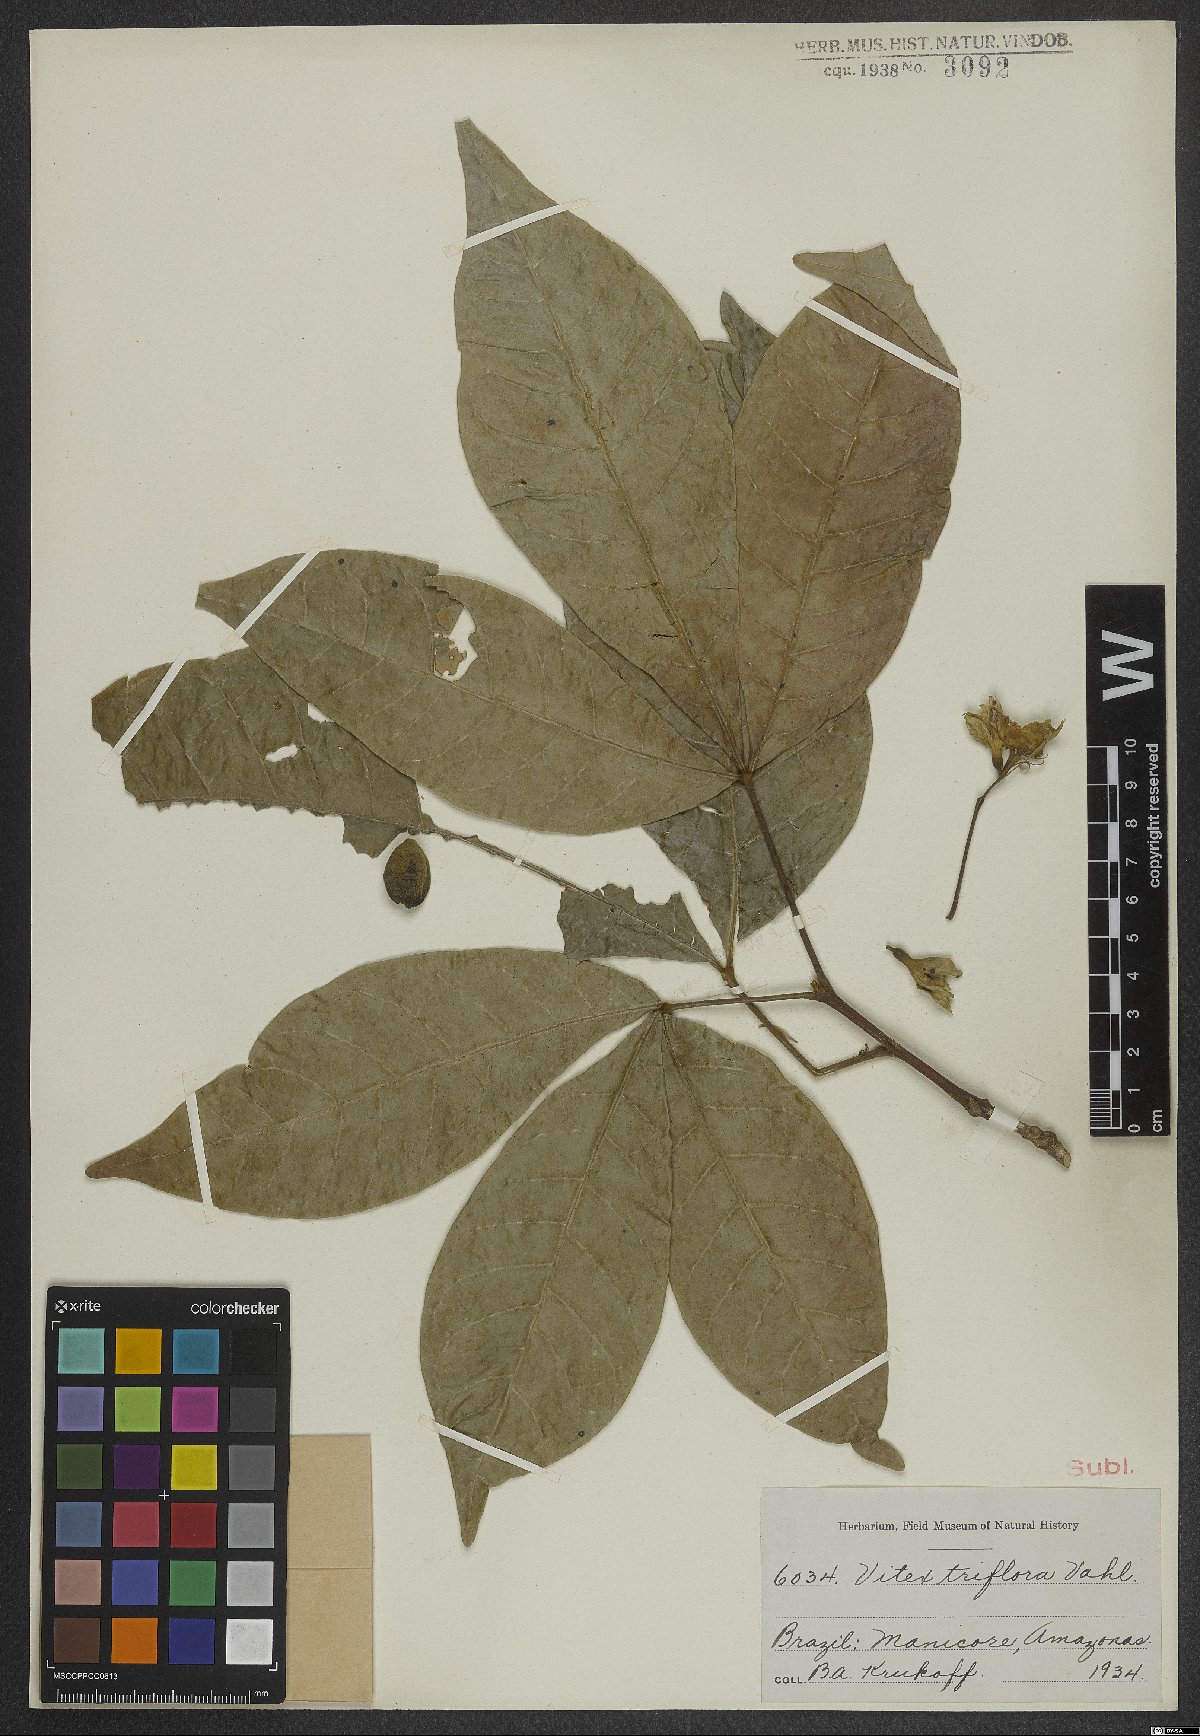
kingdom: Plantae
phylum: Tracheophyta
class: Magnoliopsida
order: Lamiales
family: Lamiaceae
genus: Vitex
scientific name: Vitex triflora
